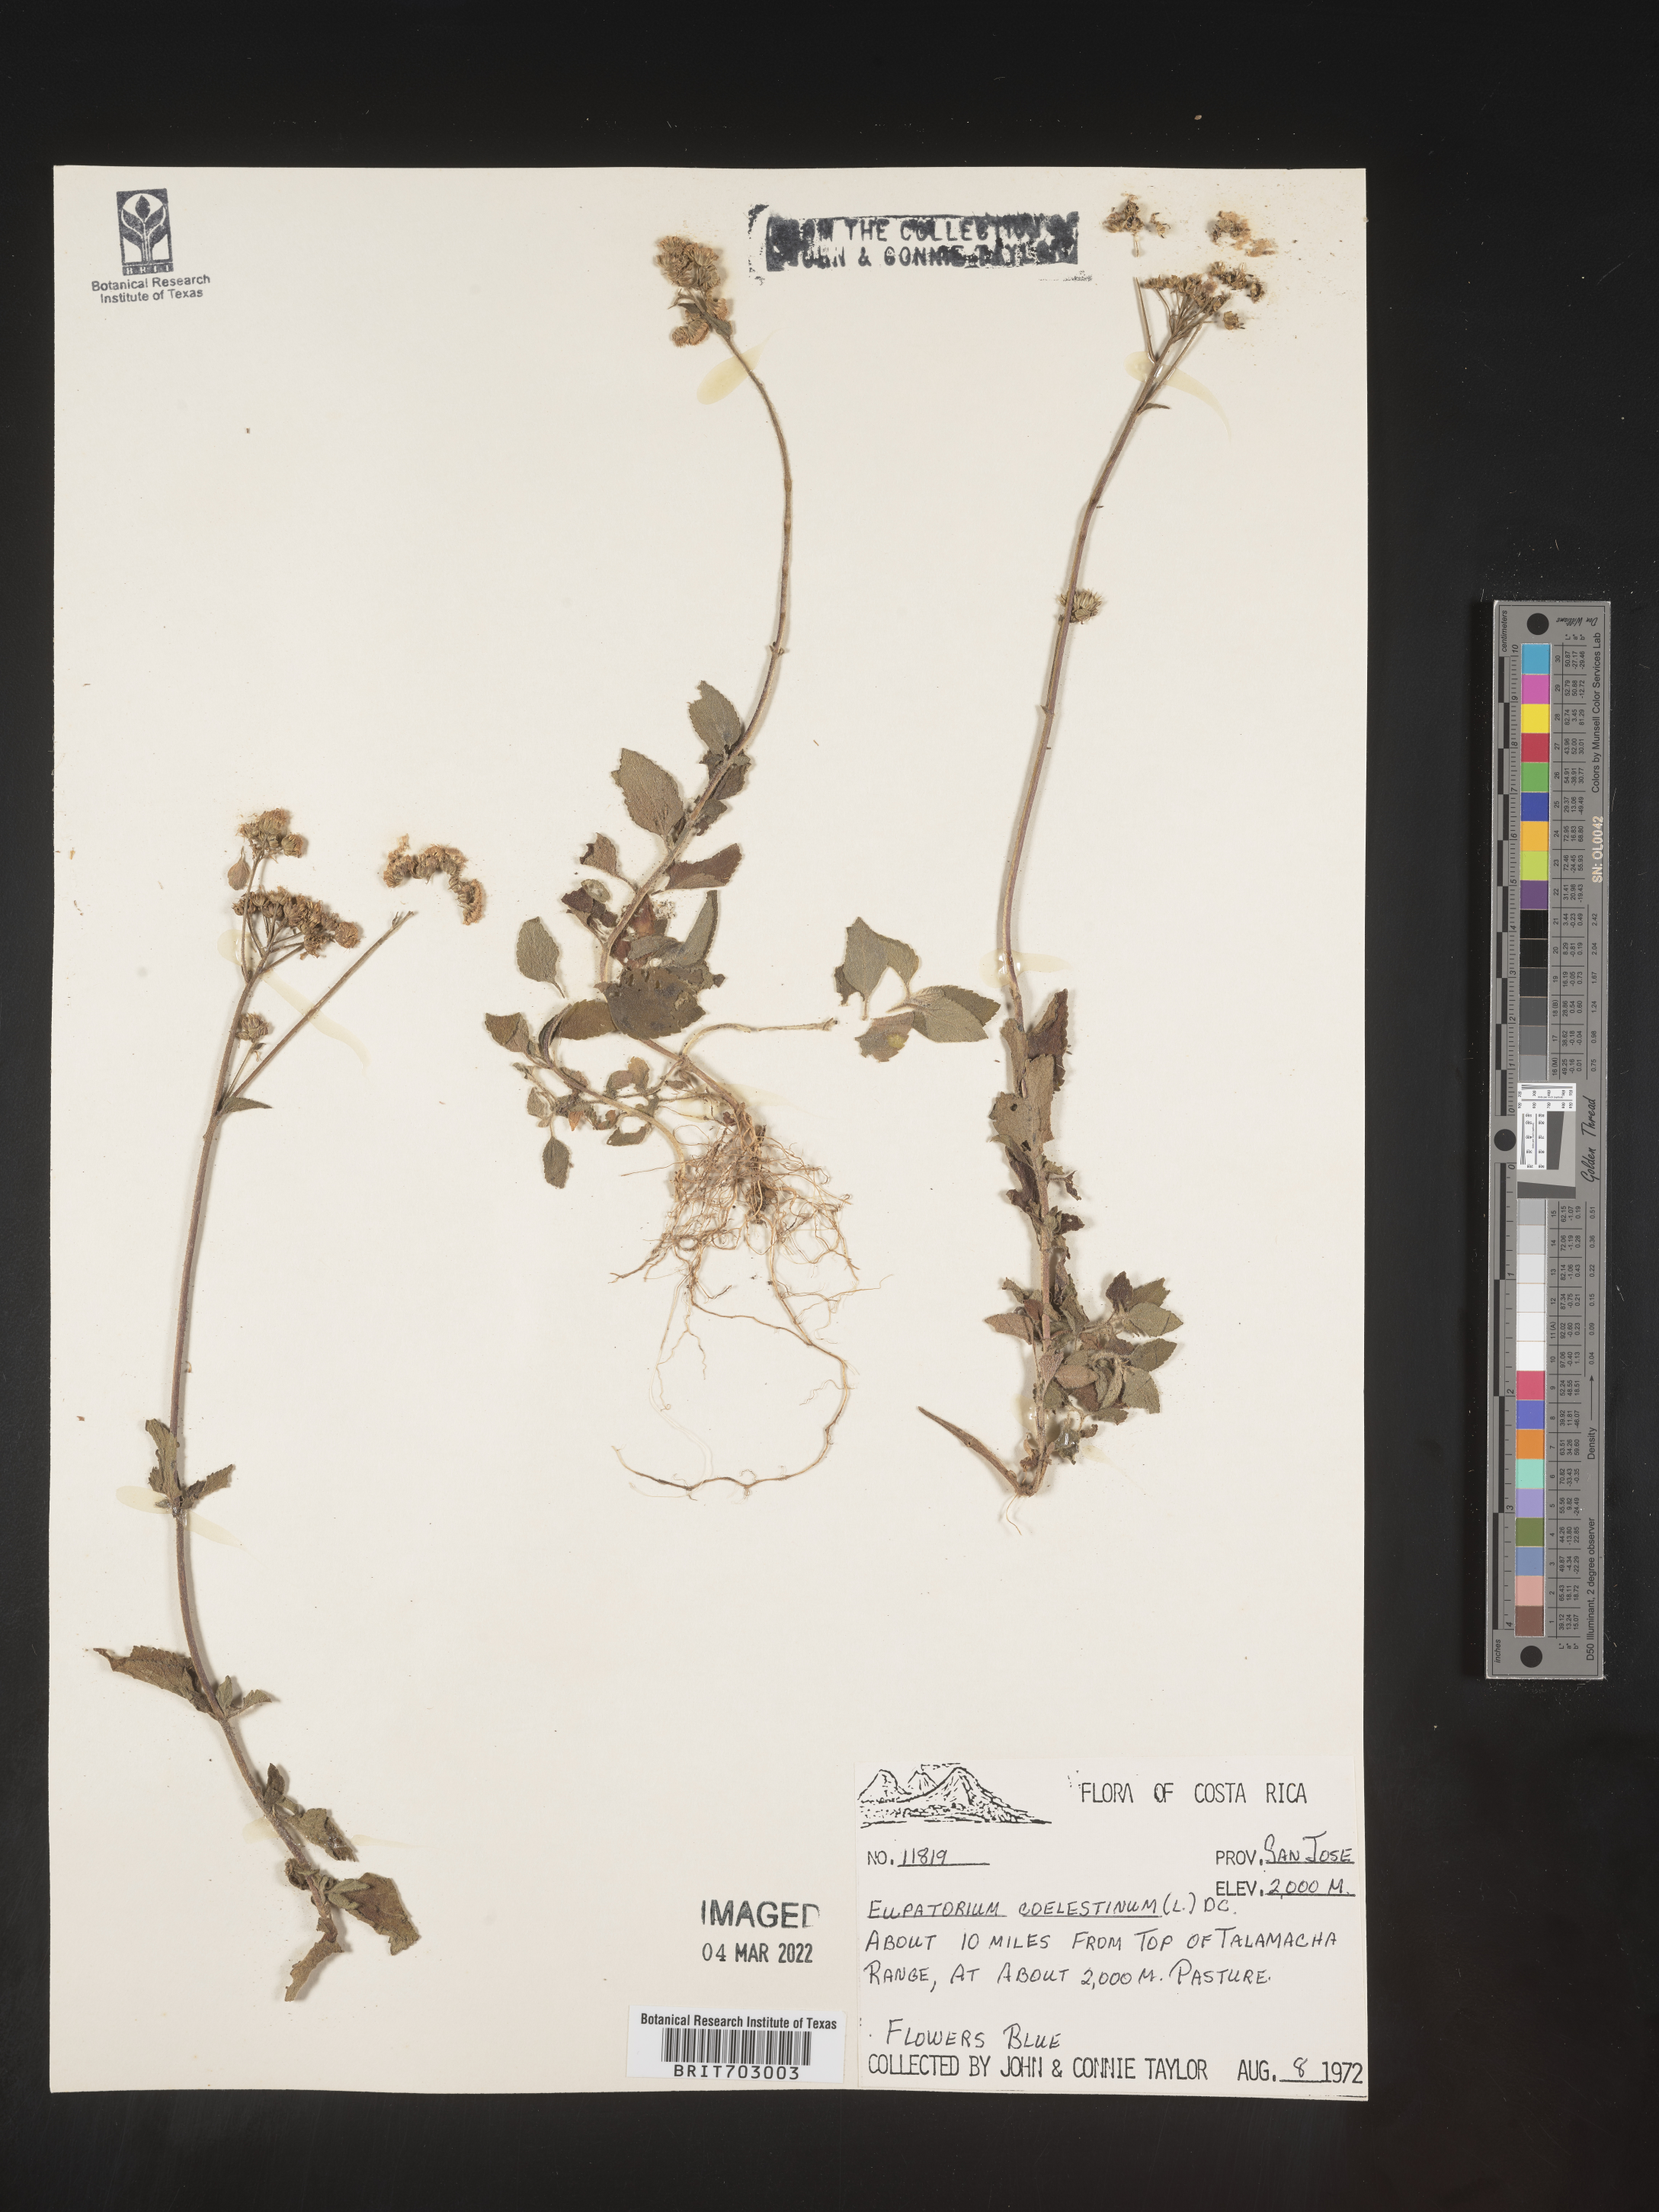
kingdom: Plantae
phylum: Tracheophyta
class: Magnoliopsida
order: Asterales
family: Asteraceae
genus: Eupatorium
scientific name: Eupatorium
